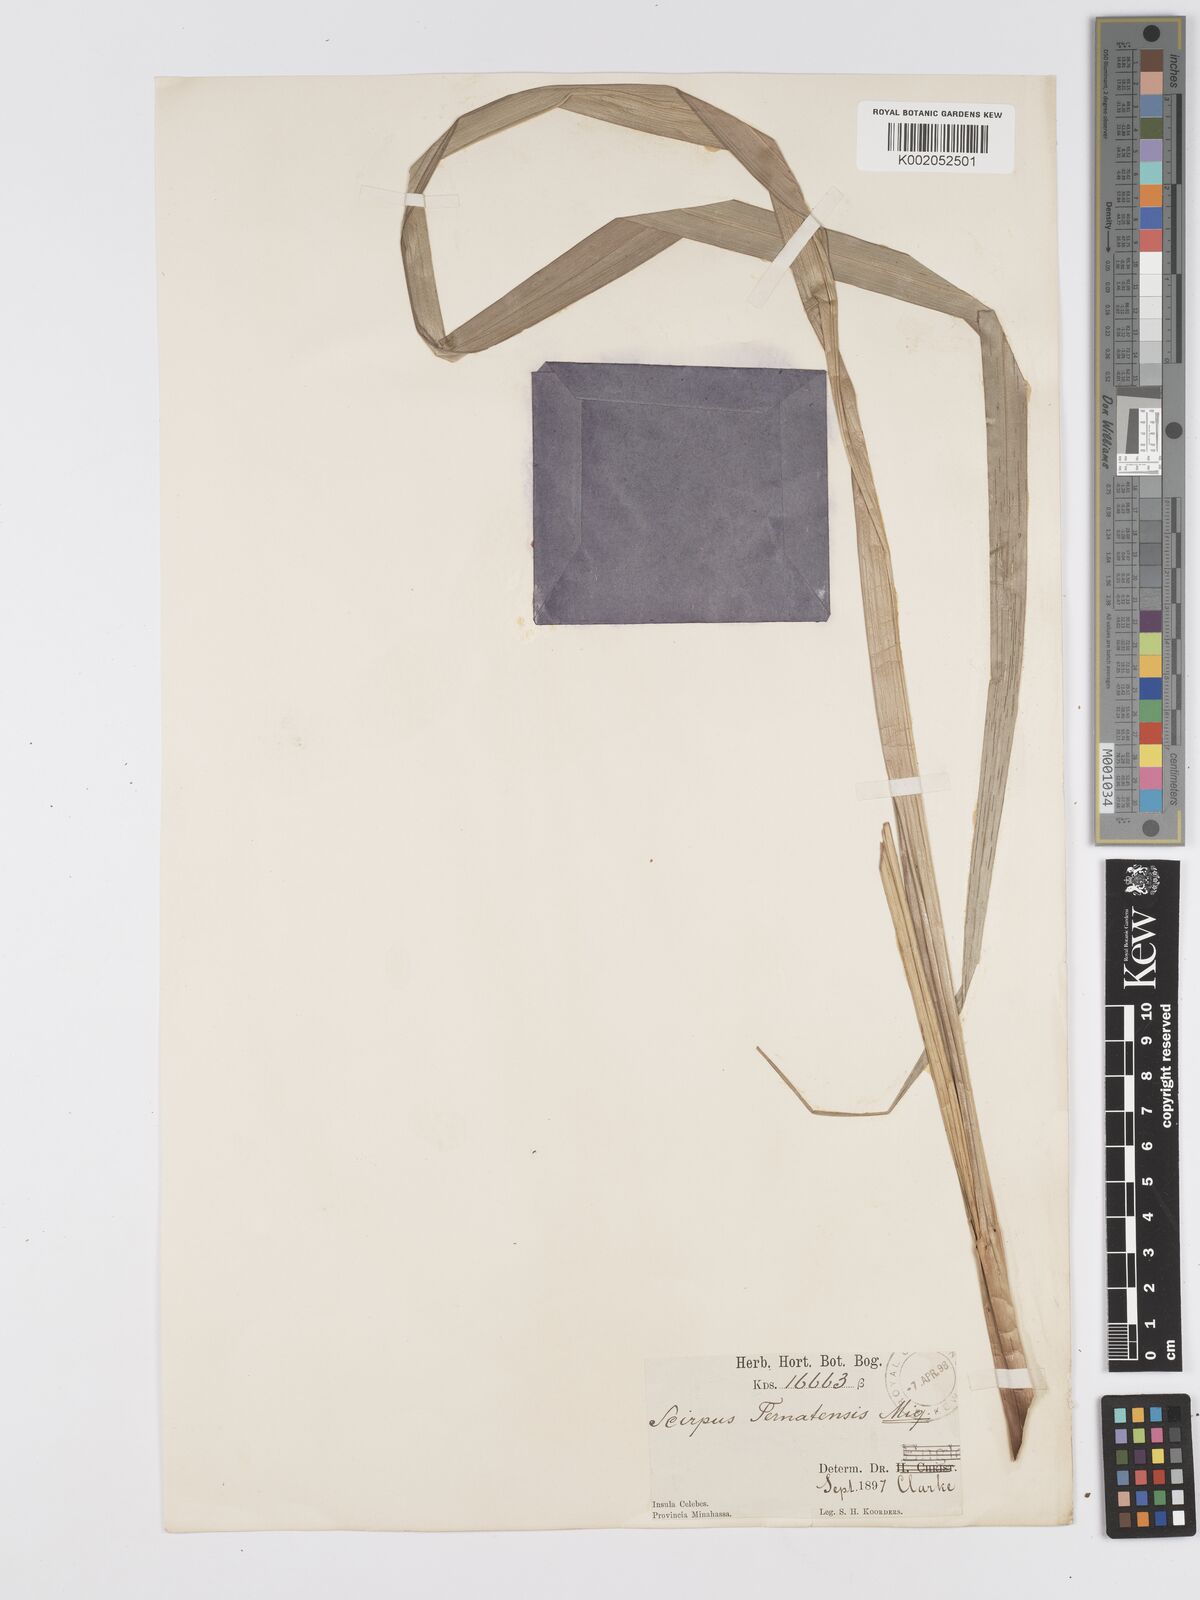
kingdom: Plantae
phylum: Tracheophyta
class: Liliopsida
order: Poales
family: Cyperaceae
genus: Scirpus
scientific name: Scirpus ternatanus
